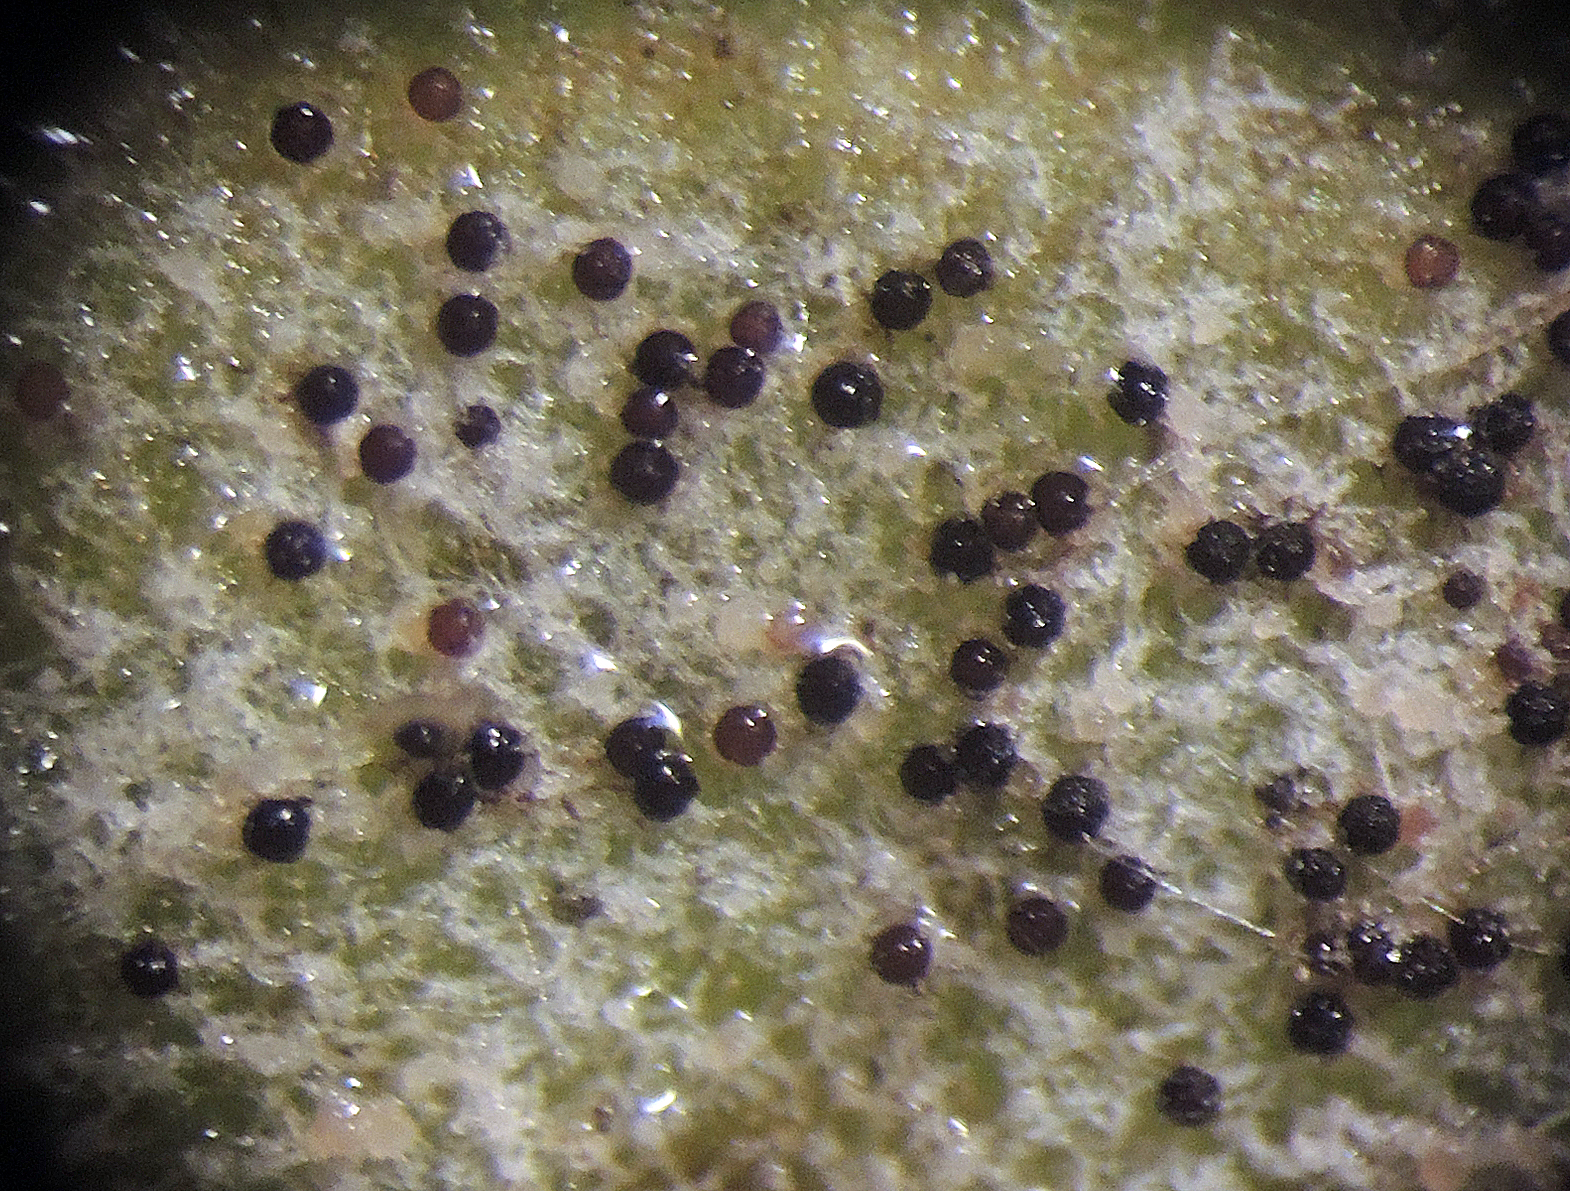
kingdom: Fungi
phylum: Ascomycota
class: Leotiomycetes
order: Helotiales
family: Erysiphaceae
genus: Podosphaera
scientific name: Podosphaera plantaginis
